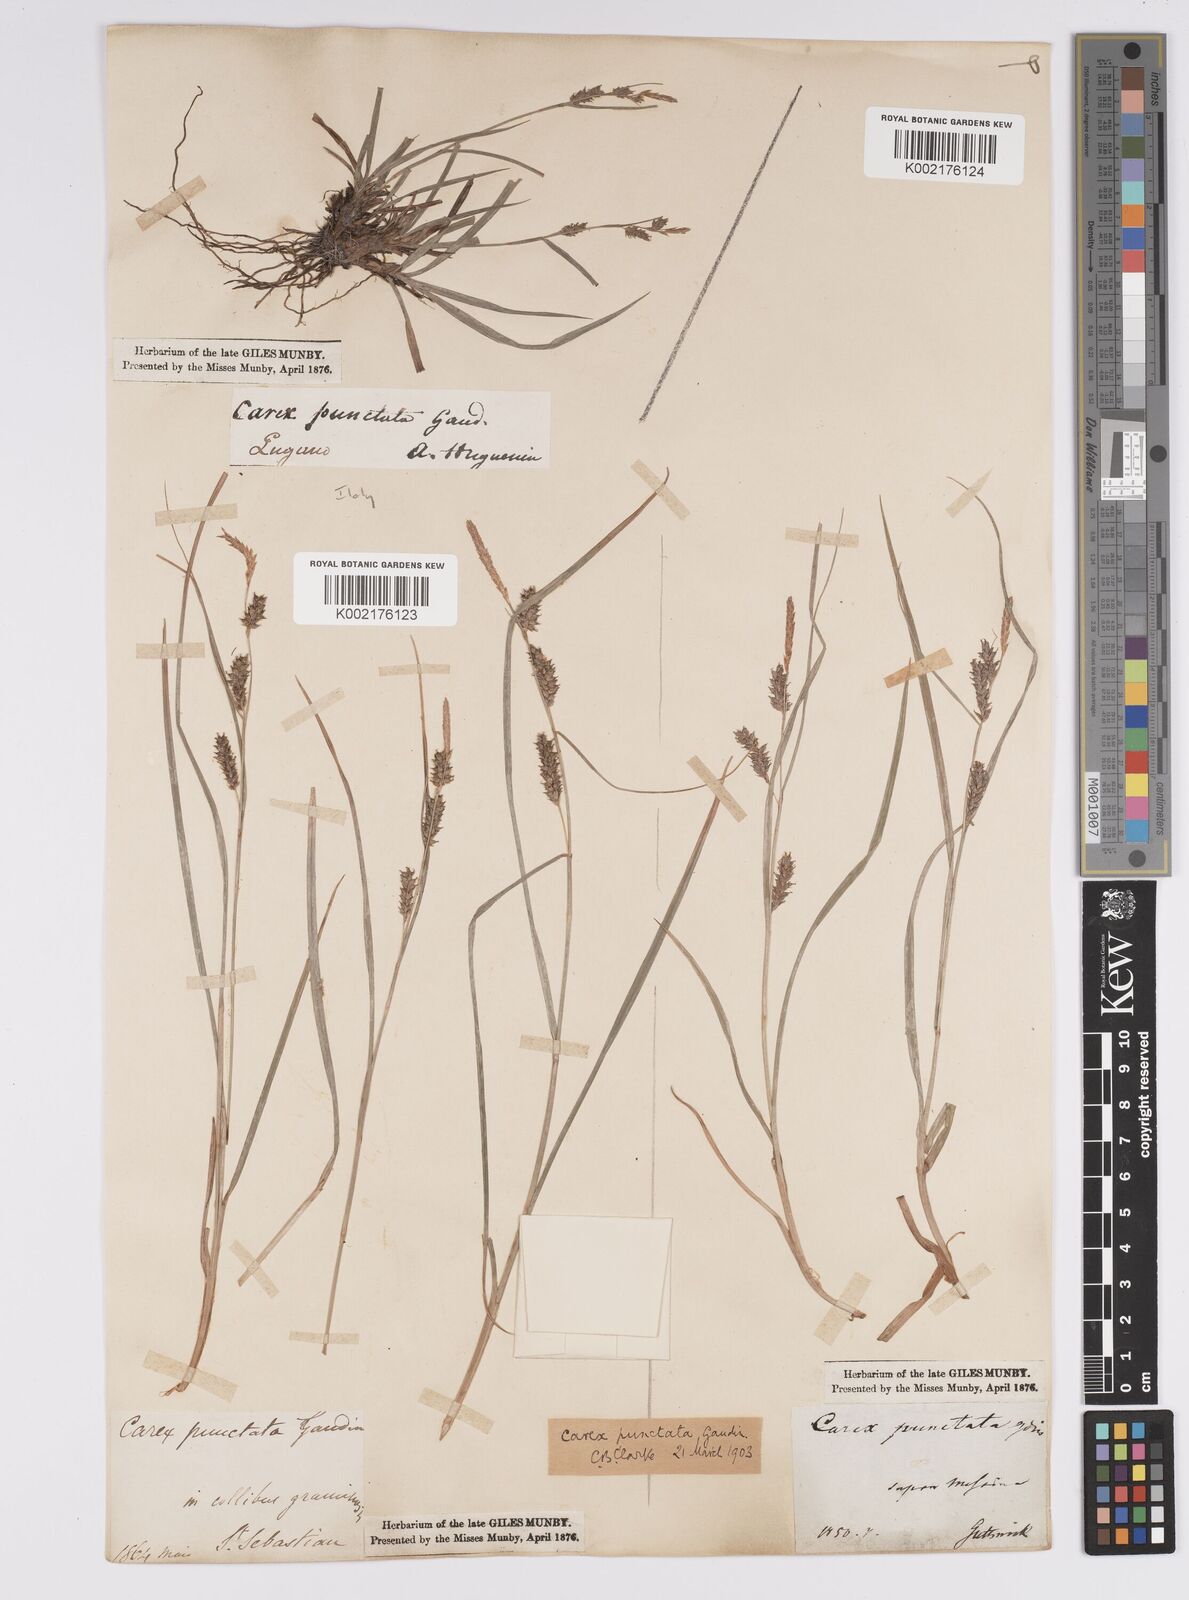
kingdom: Plantae
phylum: Tracheophyta
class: Liliopsida
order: Poales
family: Cyperaceae
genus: Carex
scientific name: Carex punctata
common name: Dotted sedge
